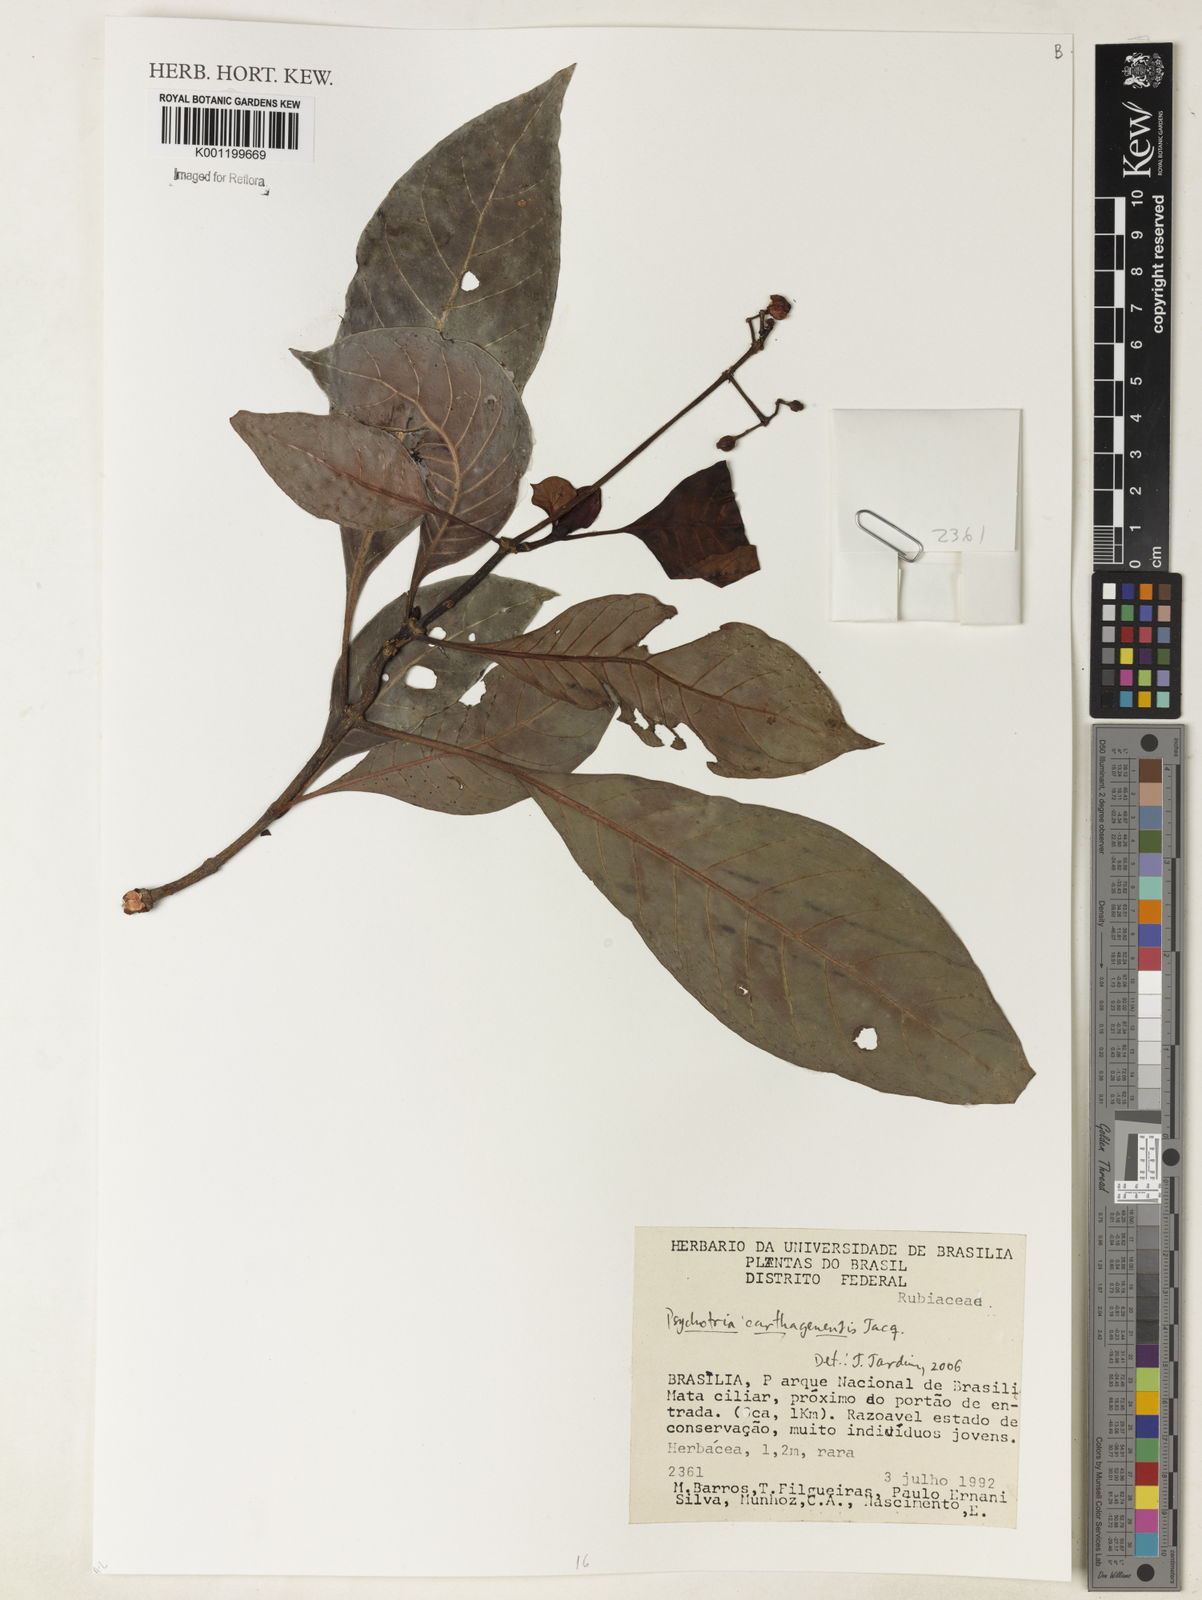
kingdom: Plantae
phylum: Tracheophyta
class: Magnoliopsida
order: Gentianales
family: Rubiaceae
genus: Psychotria
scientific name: Psychotria carthagenensis
